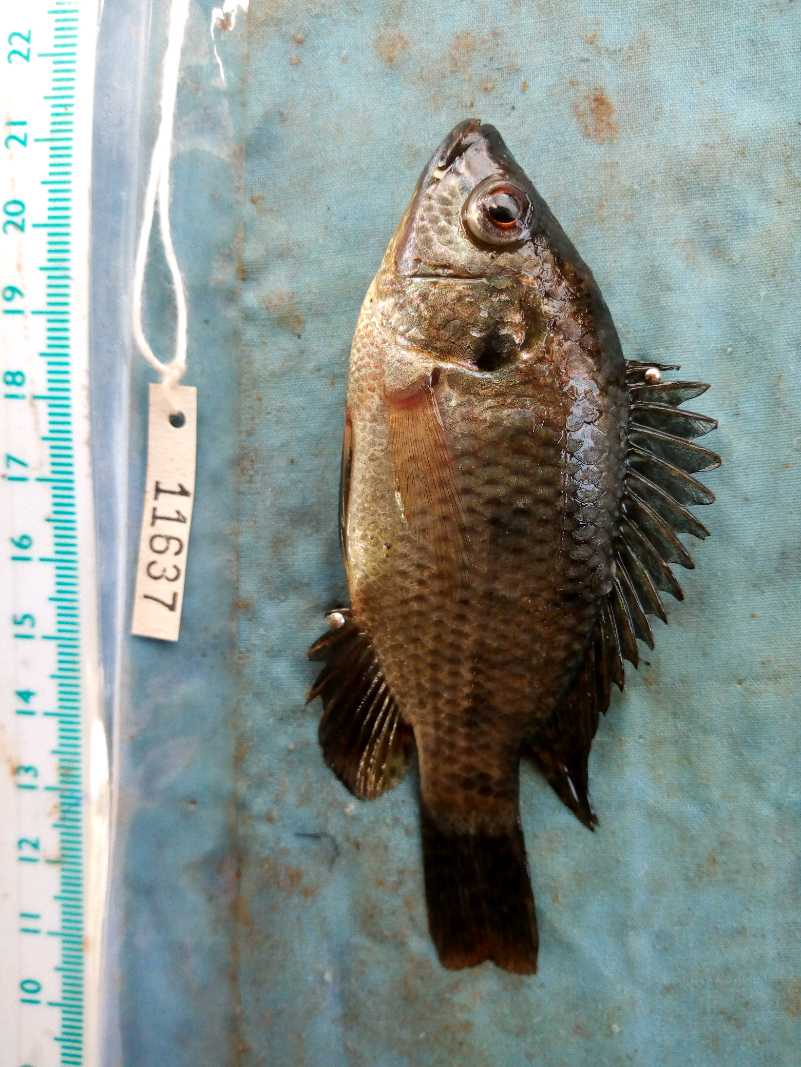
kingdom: Animalia
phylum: Chordata
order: Perciformes
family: Cichlidae
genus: Oreochromis
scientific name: Oreochromis spilurus
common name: Sabaki tilapia
